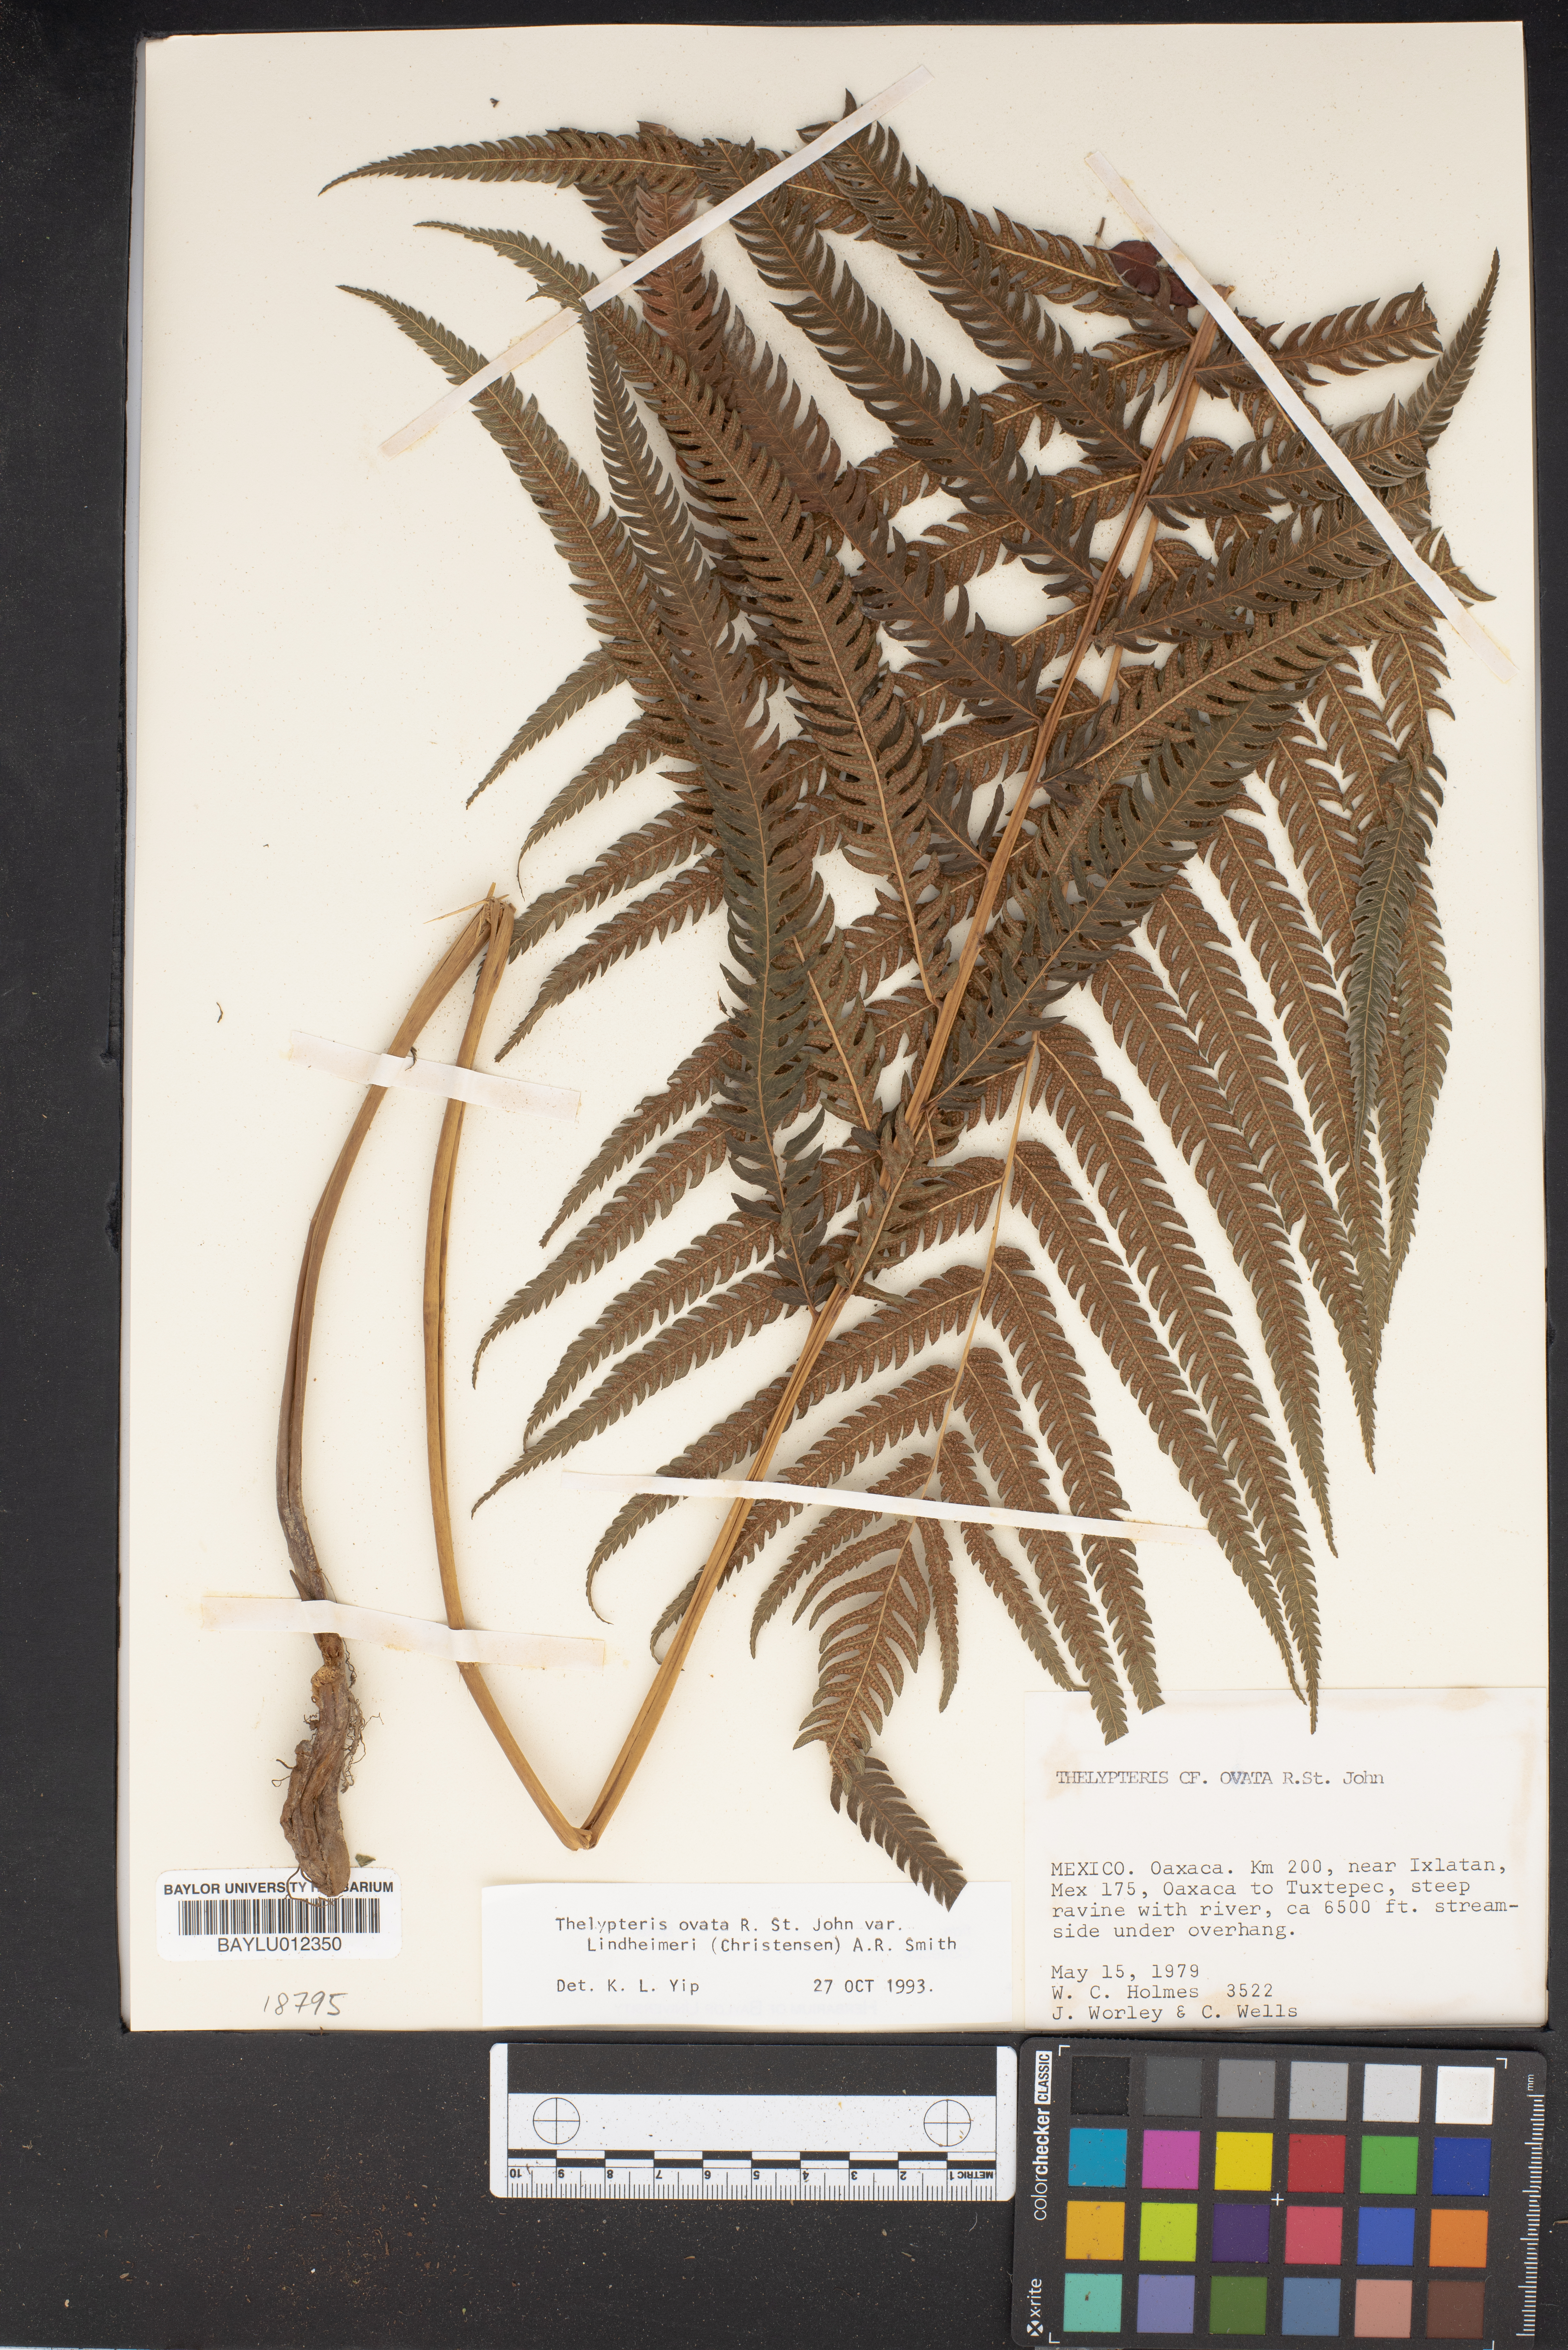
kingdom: Plantae
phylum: Tracheophyta
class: Polypodiopsida
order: Polypodiales
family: Thelypteridaceae
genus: Pelazoneuron
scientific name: Pelazoneuron ovatum
